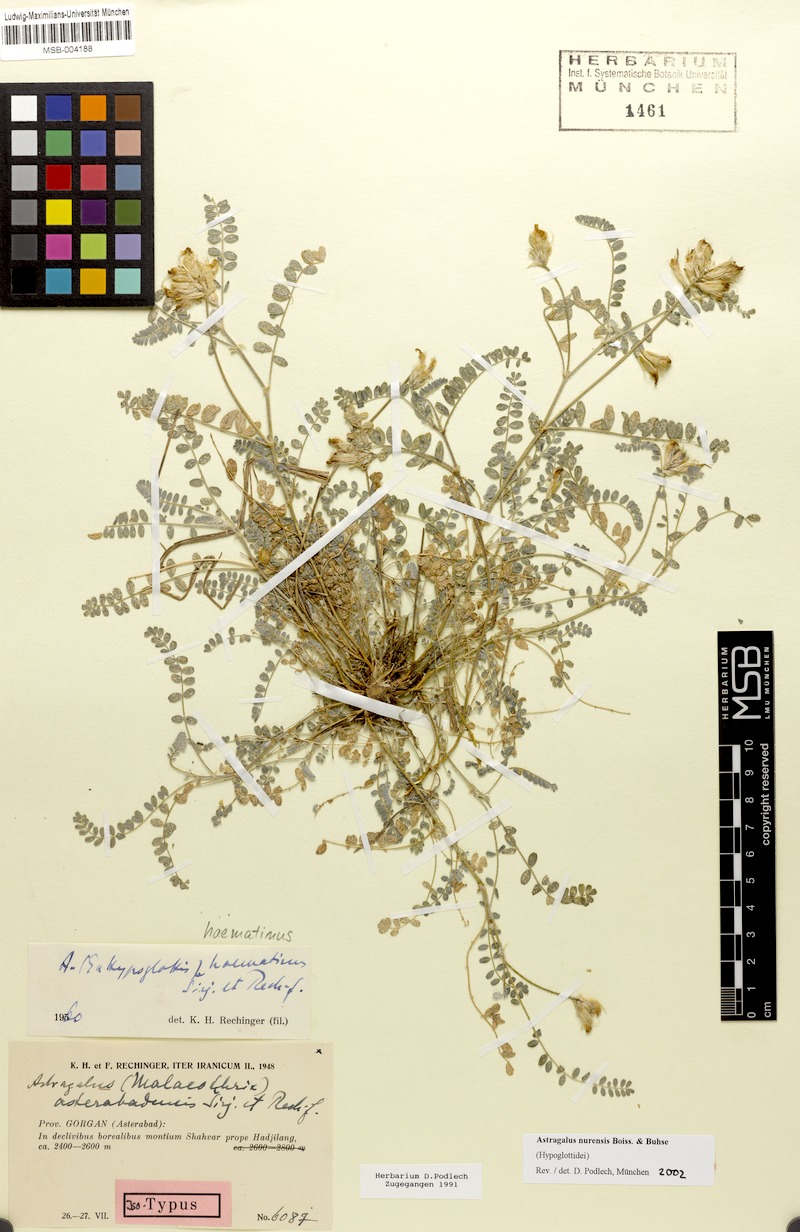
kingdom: Plantae
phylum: Tracheophyta
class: Magnoliopsida
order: Fabales
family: Fabaceae
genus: Astragalus
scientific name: Astragalus nurensis
